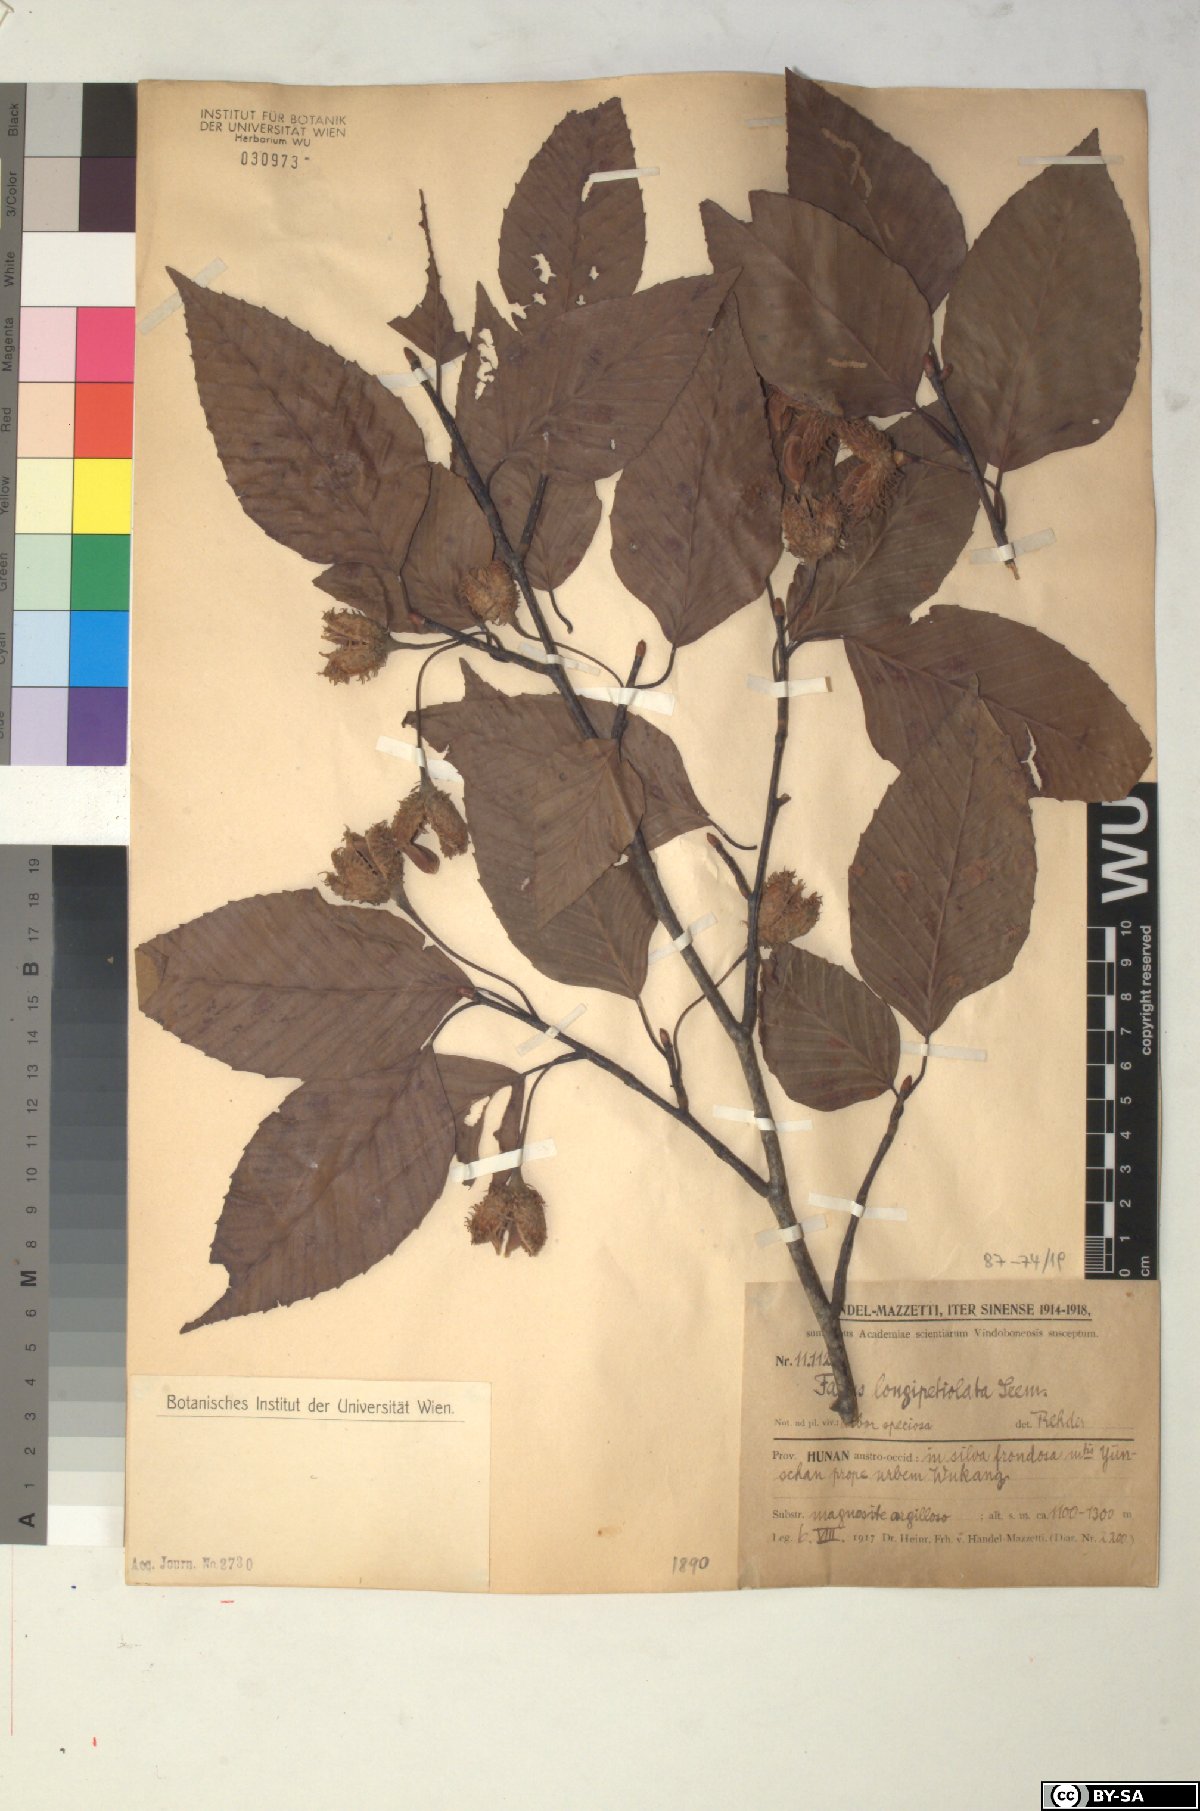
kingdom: Plantae
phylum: Tracheophyta
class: Magnoliopsida
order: Fagales
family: Fagaceae
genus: Fagus
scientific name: Fagus sinensis
